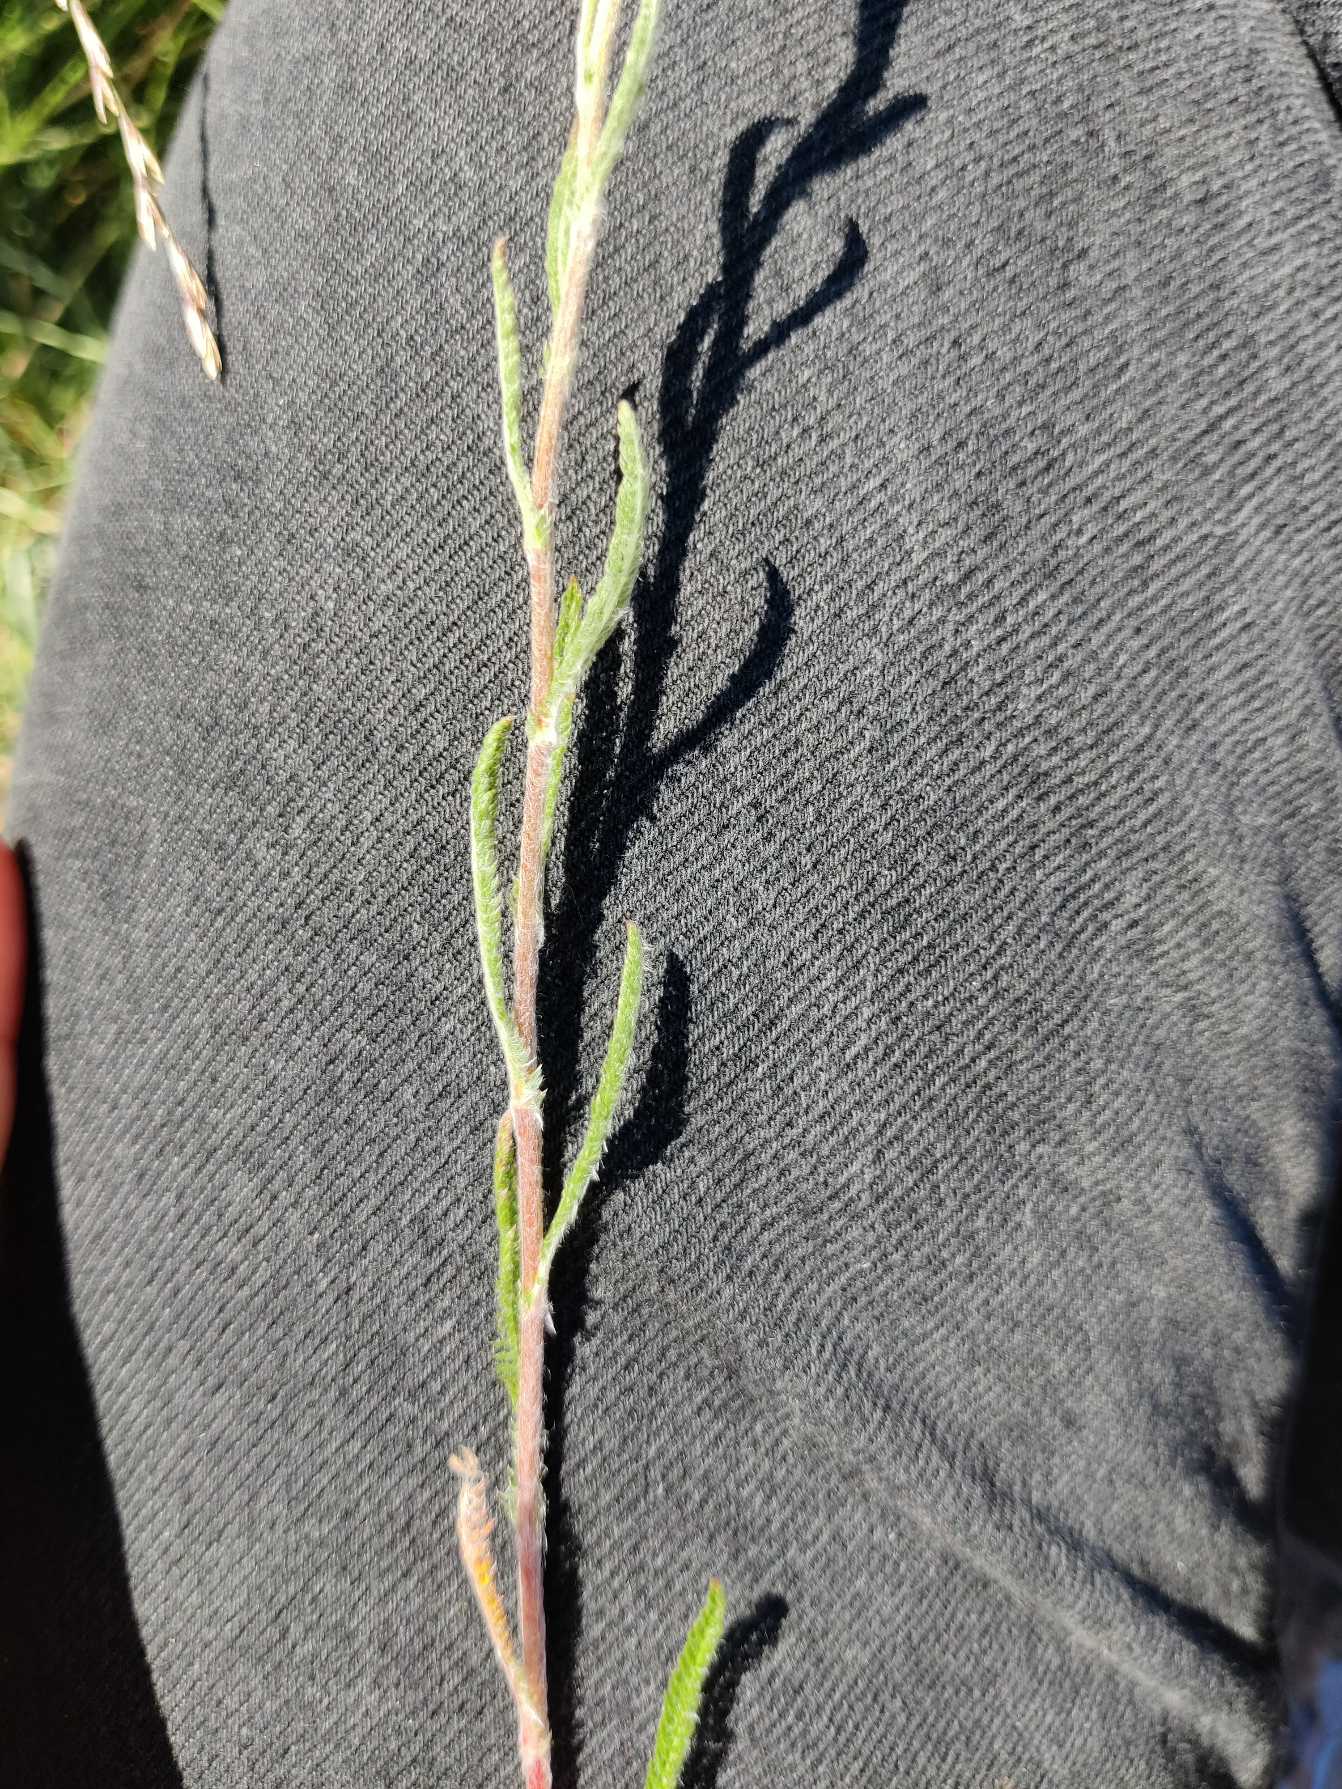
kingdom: Plantae
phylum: Tracheophyta
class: Magnoliopsida
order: Asterales
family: Asteraceae
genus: Achillea
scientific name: Achillea millefolium
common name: Almindelig røllike
